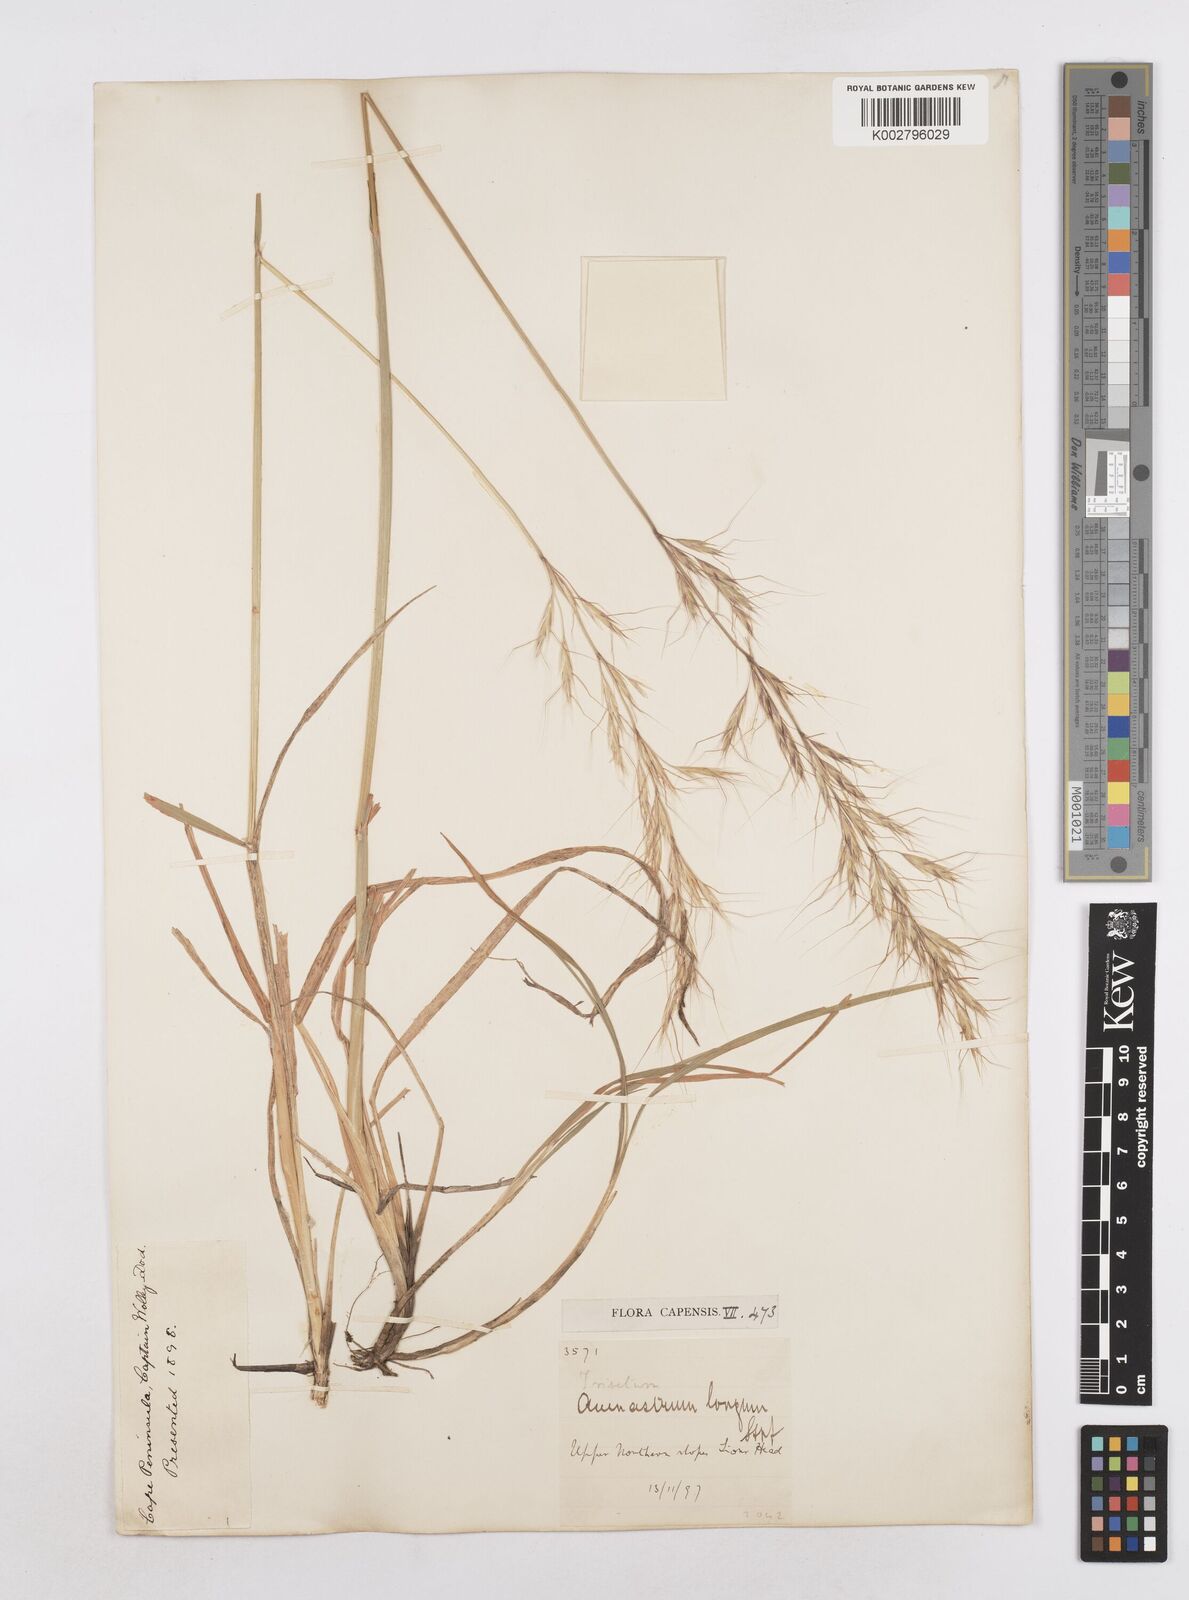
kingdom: Plantae
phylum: Tracheophyta
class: Liliopsida
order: Poales
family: Poaceae
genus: Trisetopsis
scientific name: Trisetopsis longa
